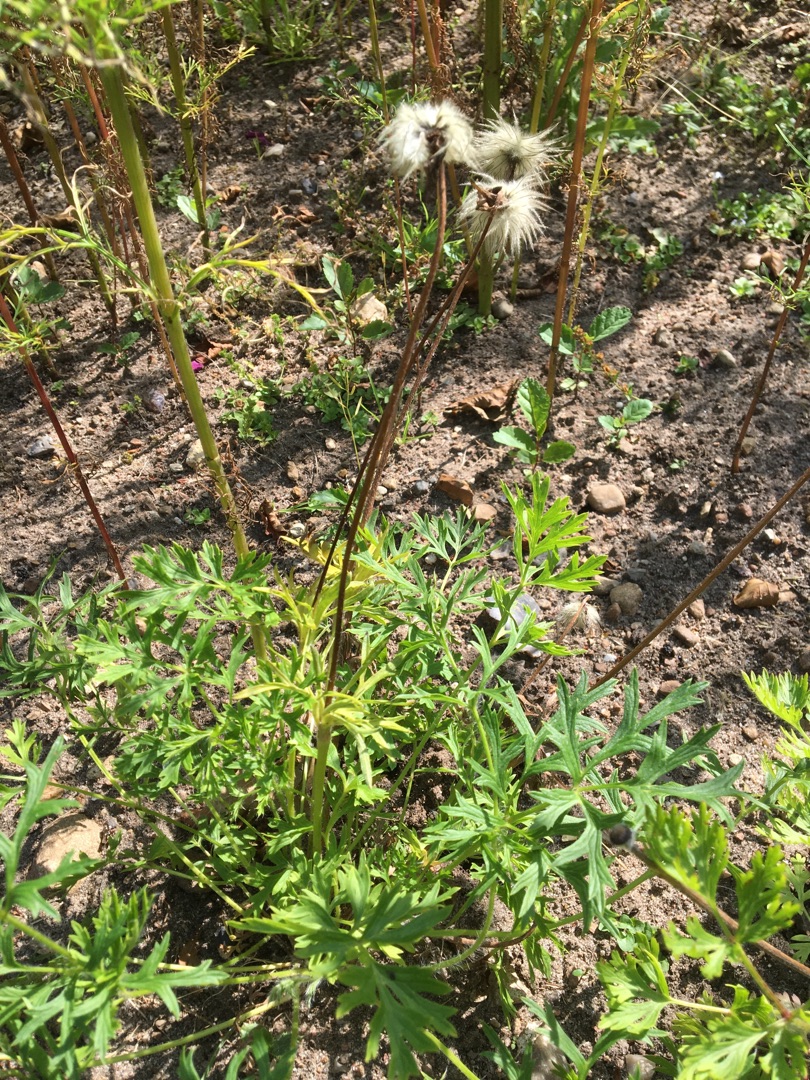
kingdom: Plantae
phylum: Tracheophyta
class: Magnoliopsida
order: Ranunculales
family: Ranunculaceae
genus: Anemone
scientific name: Anemone coronaria
